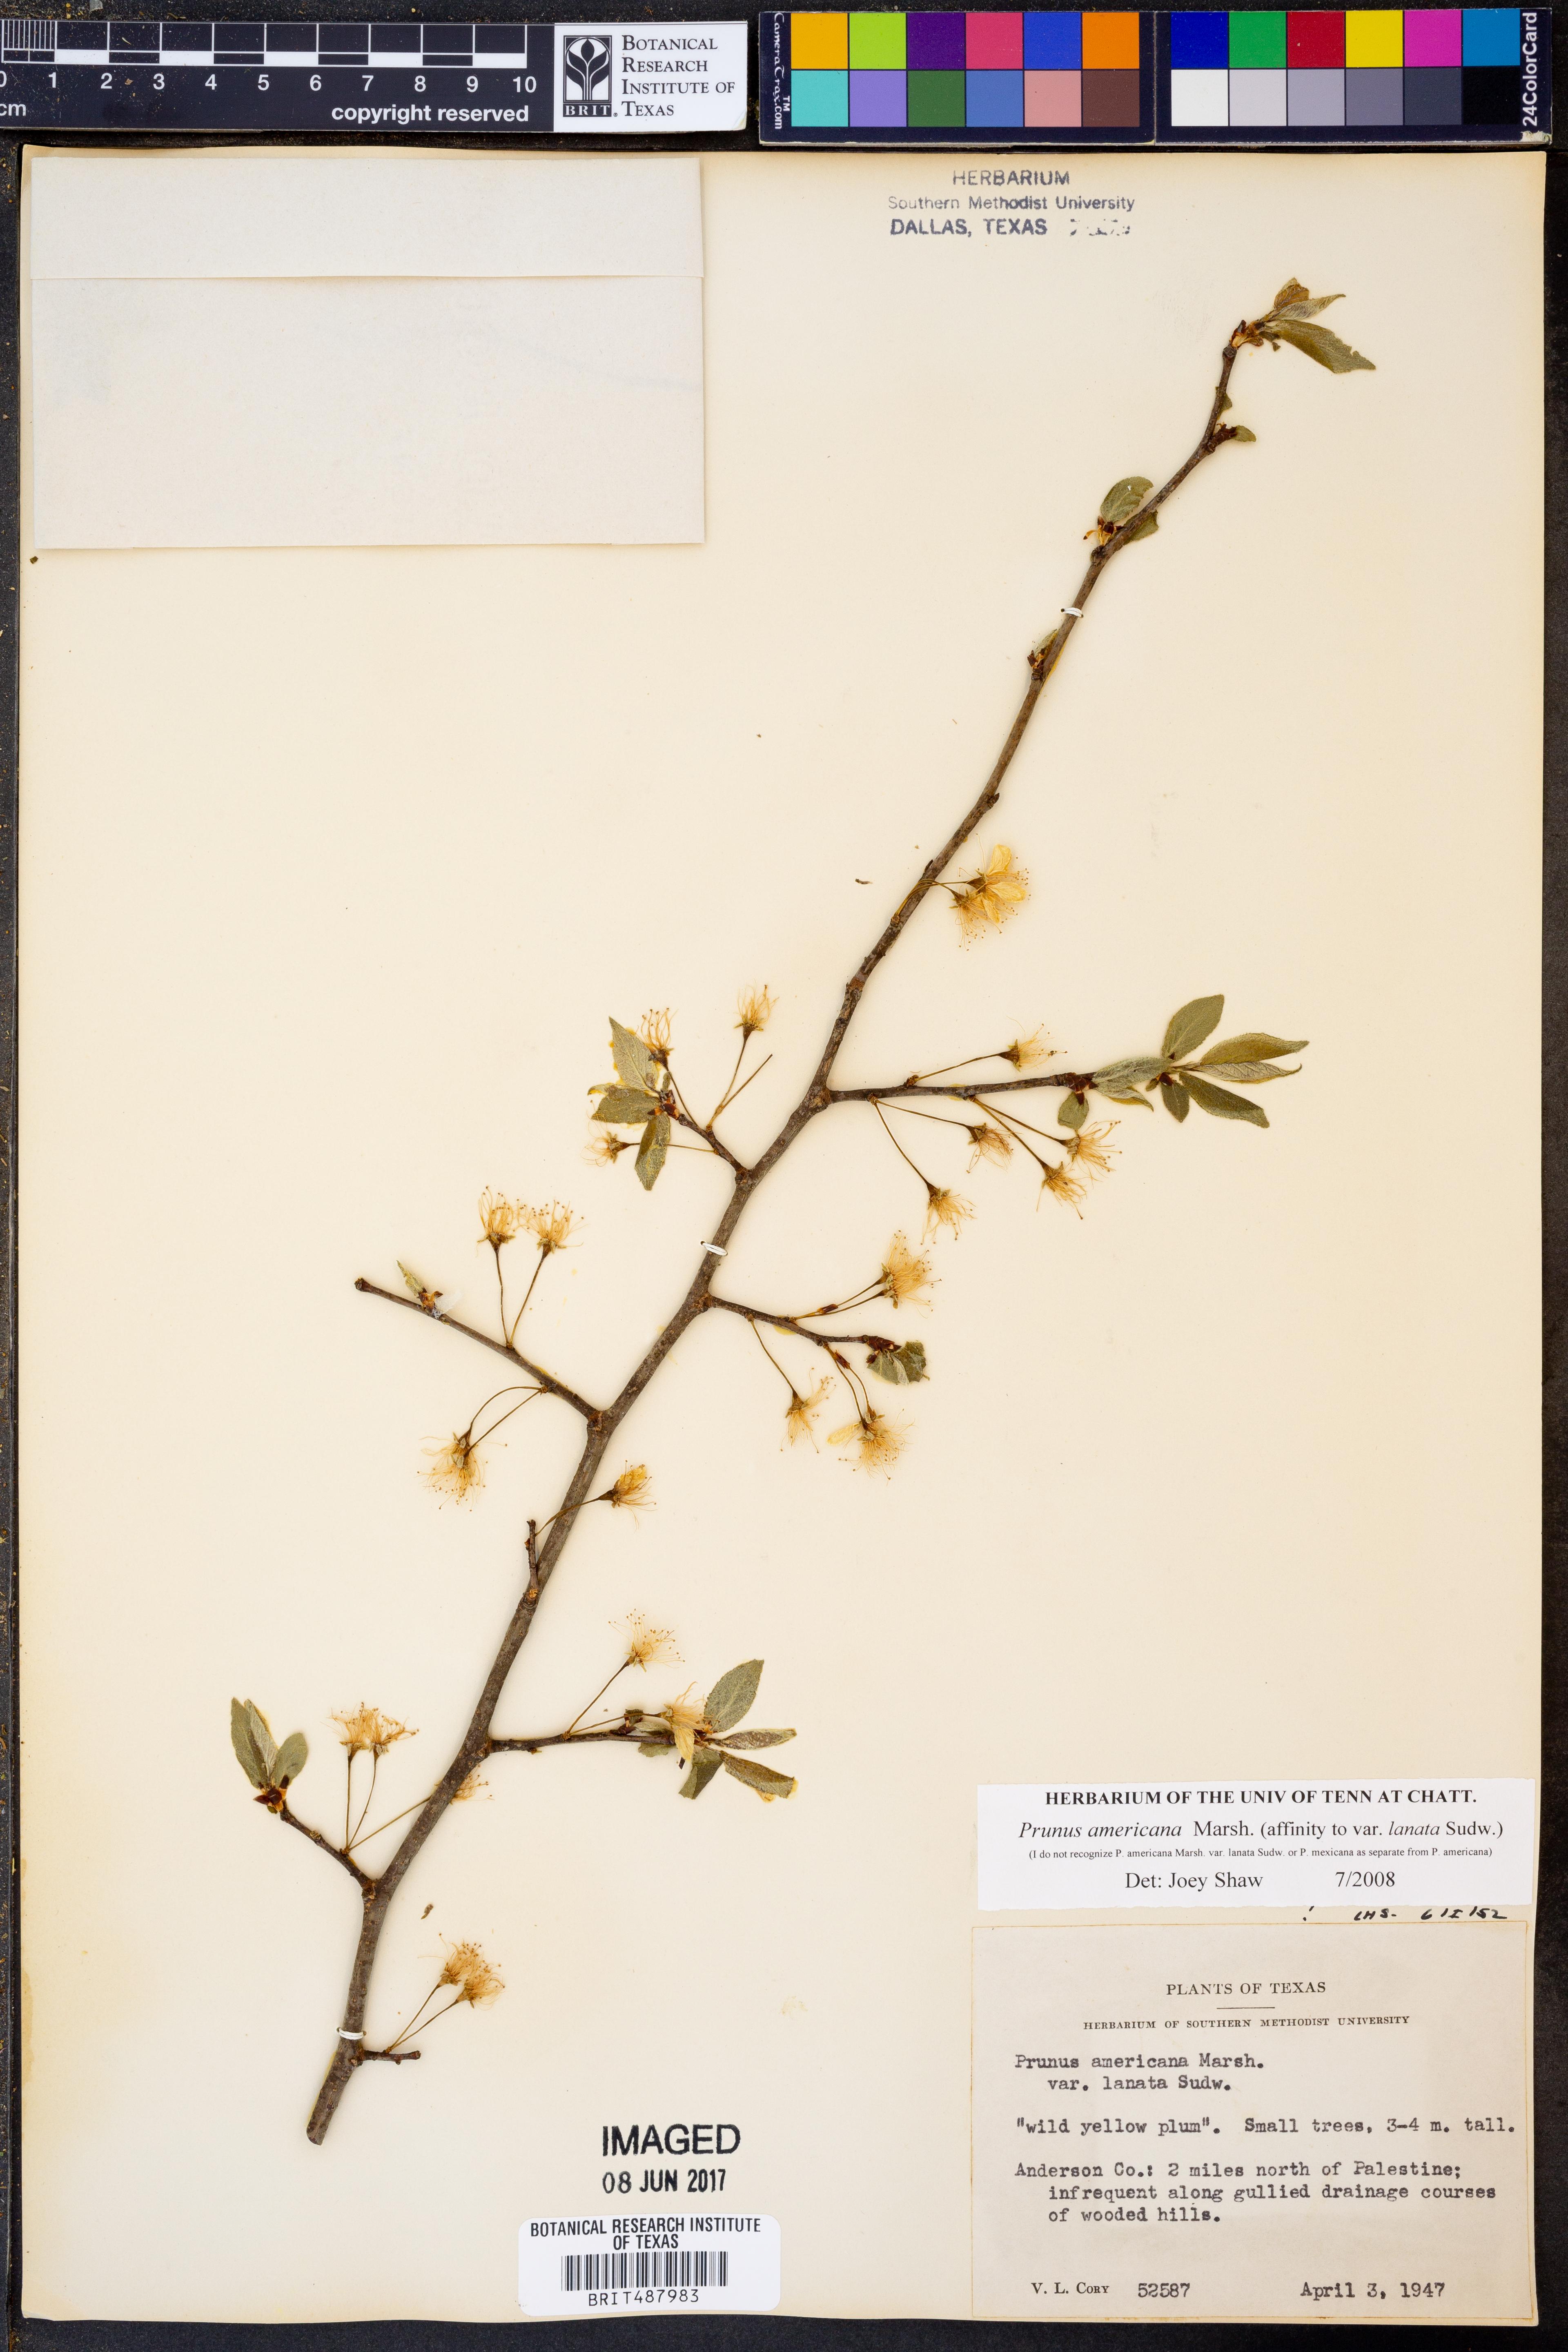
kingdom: Plantae
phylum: Tracheophyta
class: Magnoliopsida
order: Rosales
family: Rosaceae
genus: Prunus
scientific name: Prunus americana
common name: American plum
